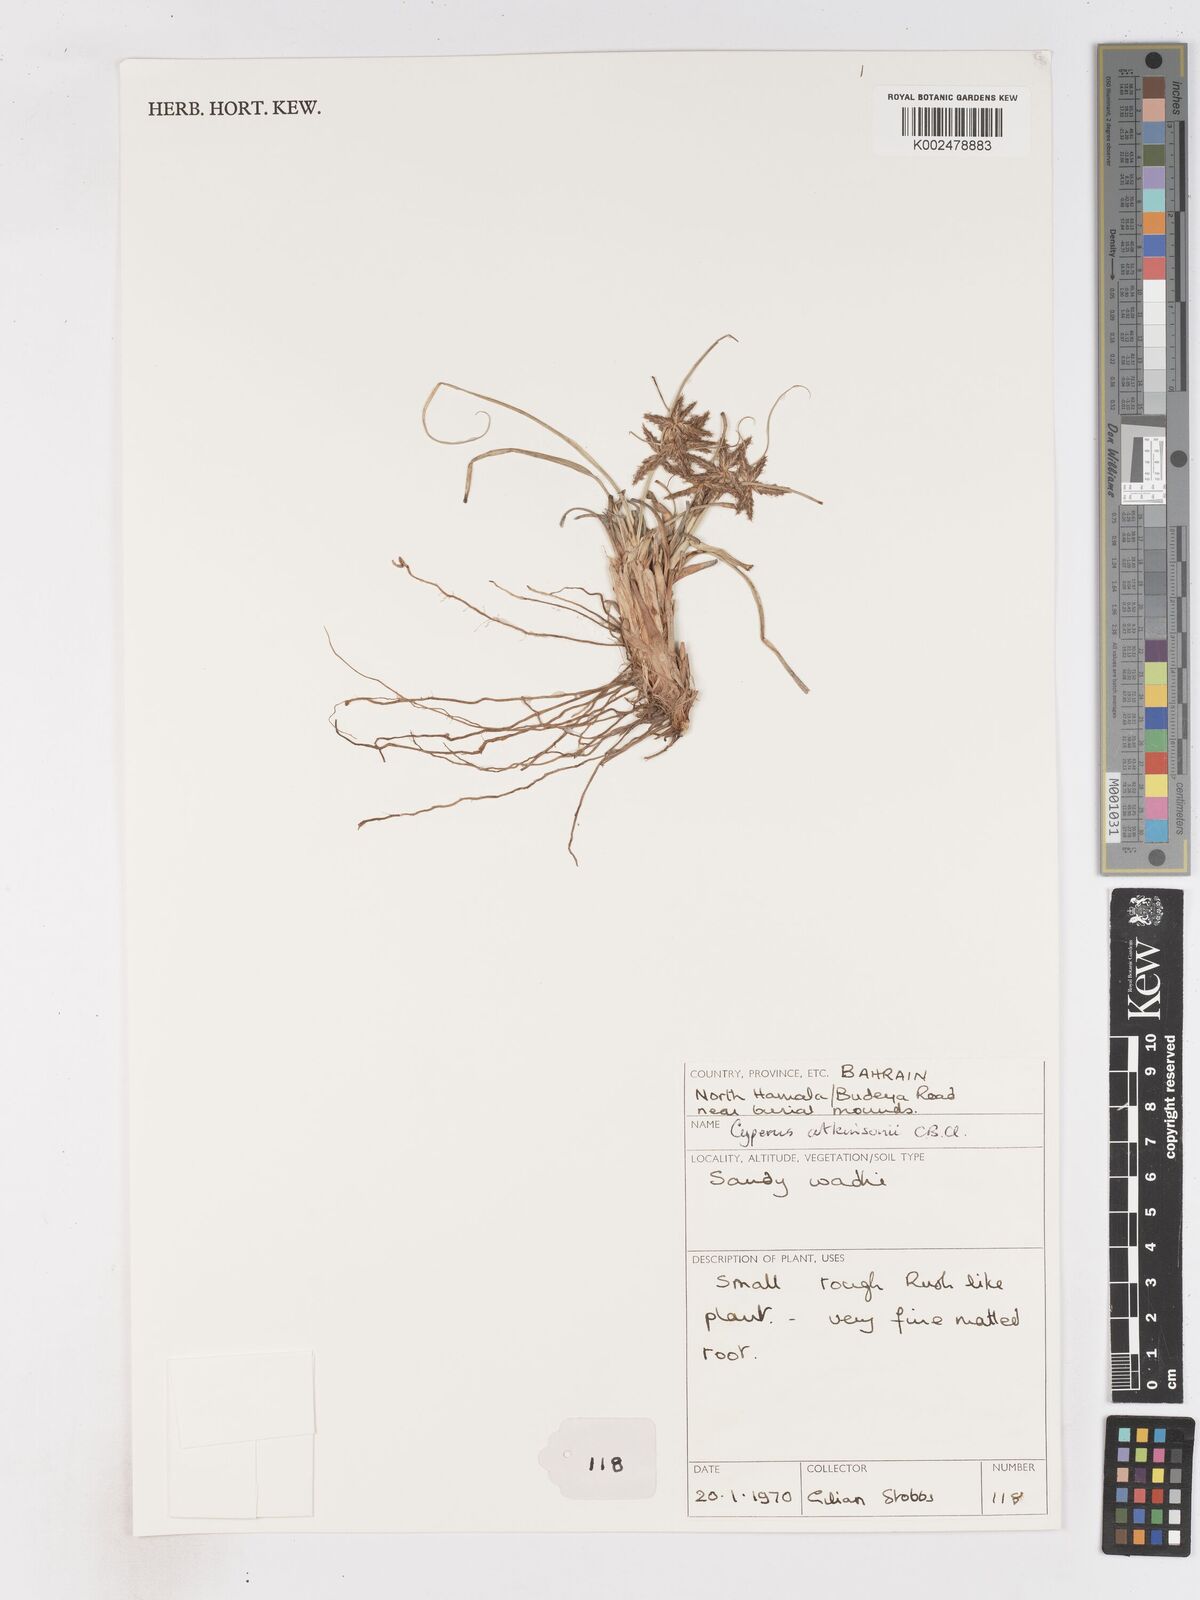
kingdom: Plantae
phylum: Tracheophyta
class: Liliopsida
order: Poales
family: Cyperaceae
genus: Cyperus
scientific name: Cyperus jeminicus
